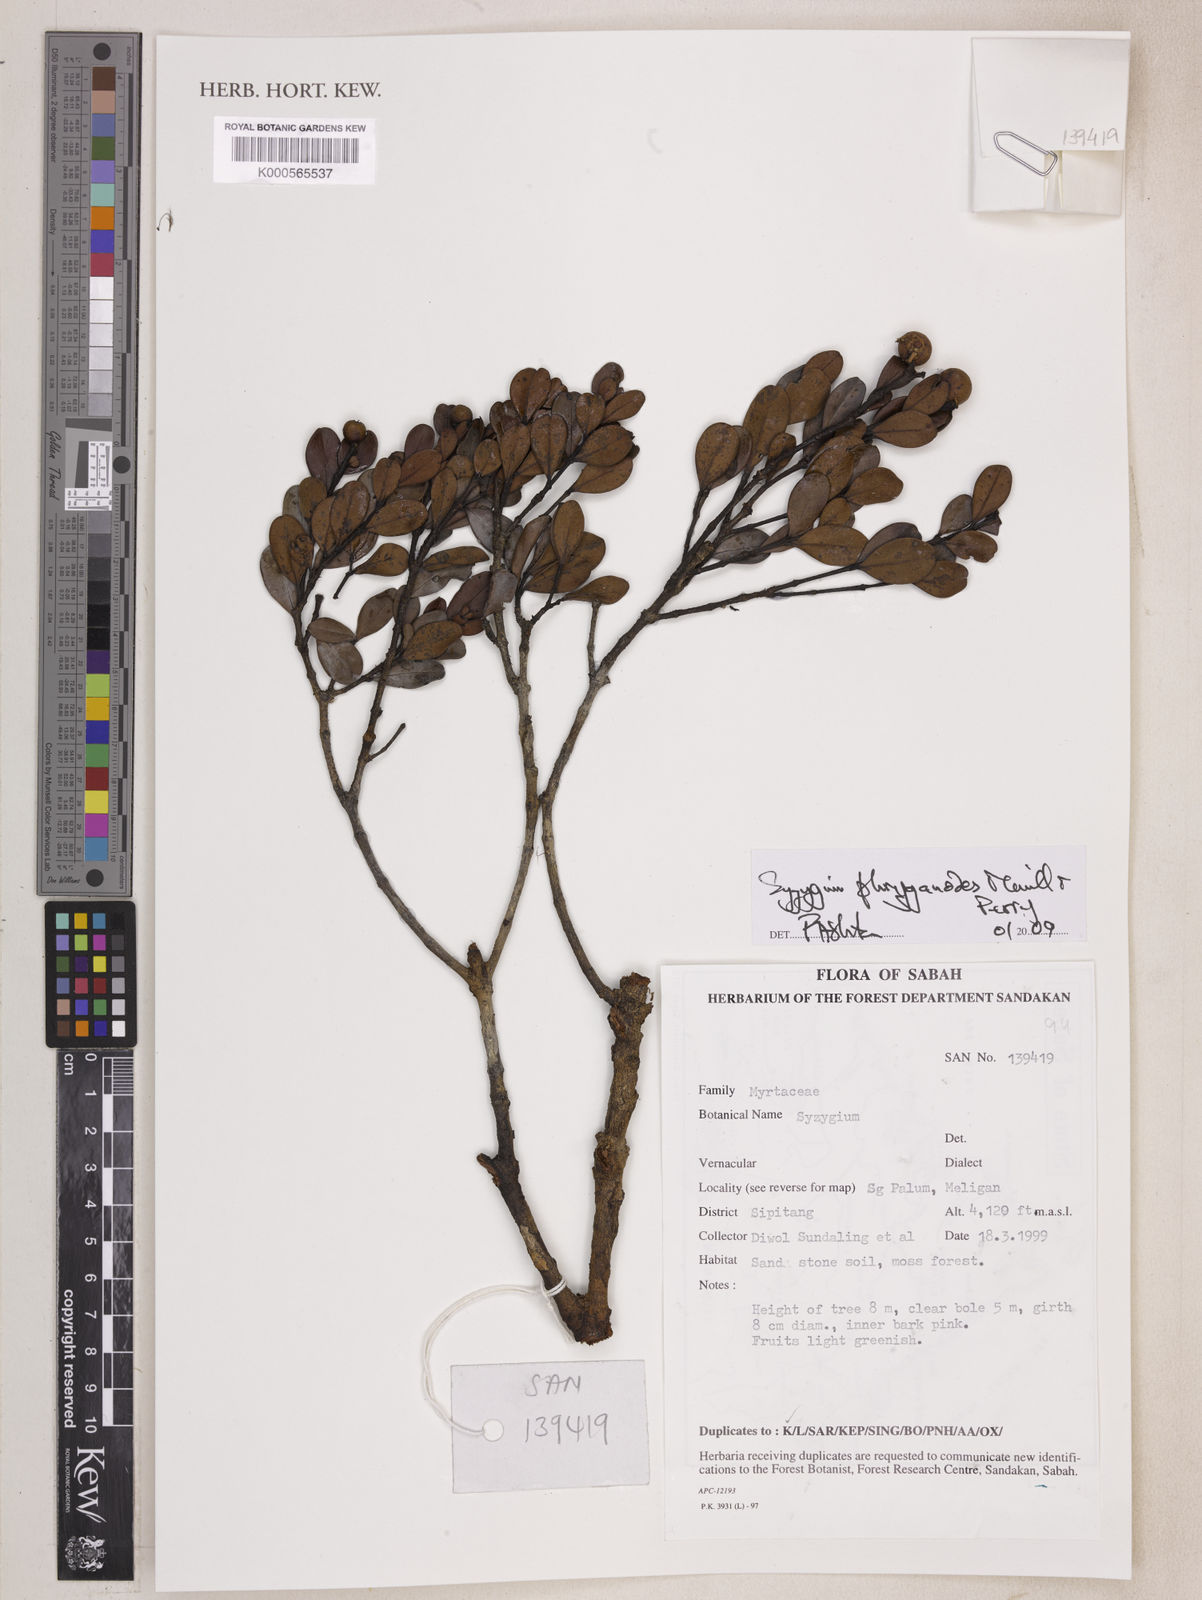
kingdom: Plantae
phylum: Tracheophyta
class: Magnoliopsida
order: Myrtales
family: Myrtaceae
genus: Syzygium
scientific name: Syzygium phryganodes
